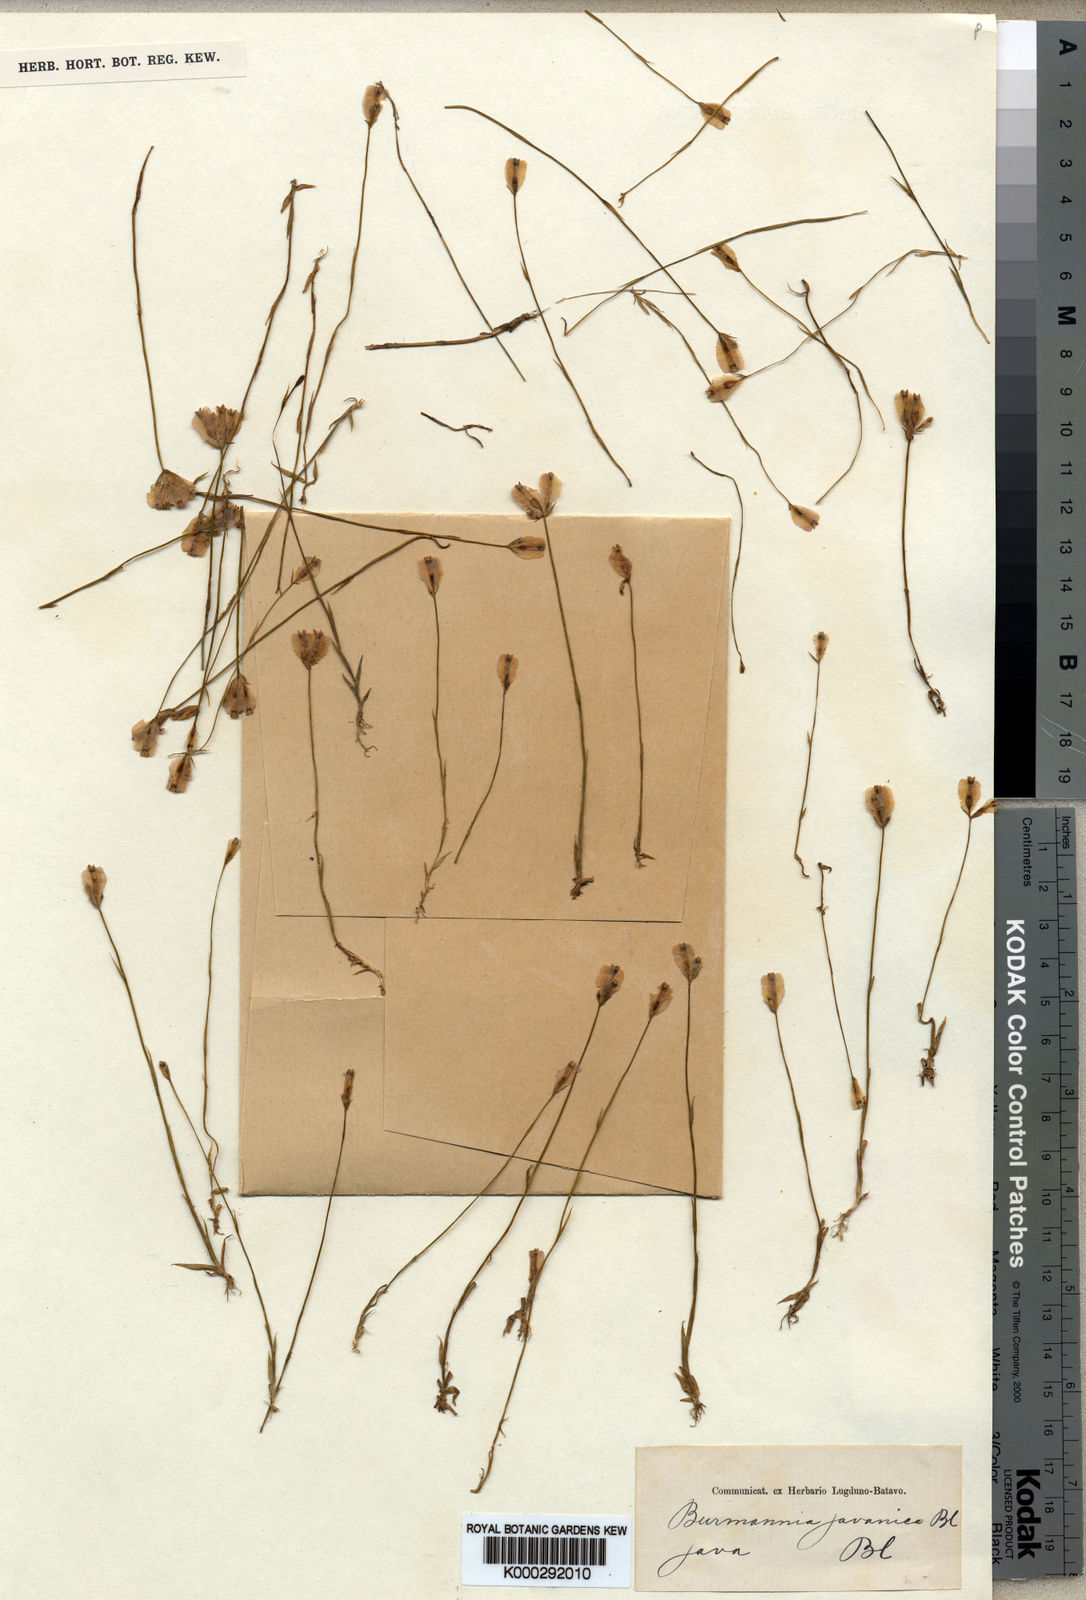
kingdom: Plantae
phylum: Tracheophyta
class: Liliopsida
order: Dioscoreales
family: Burmanniaceae
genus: Burmannia
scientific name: Burmannia coelestis
